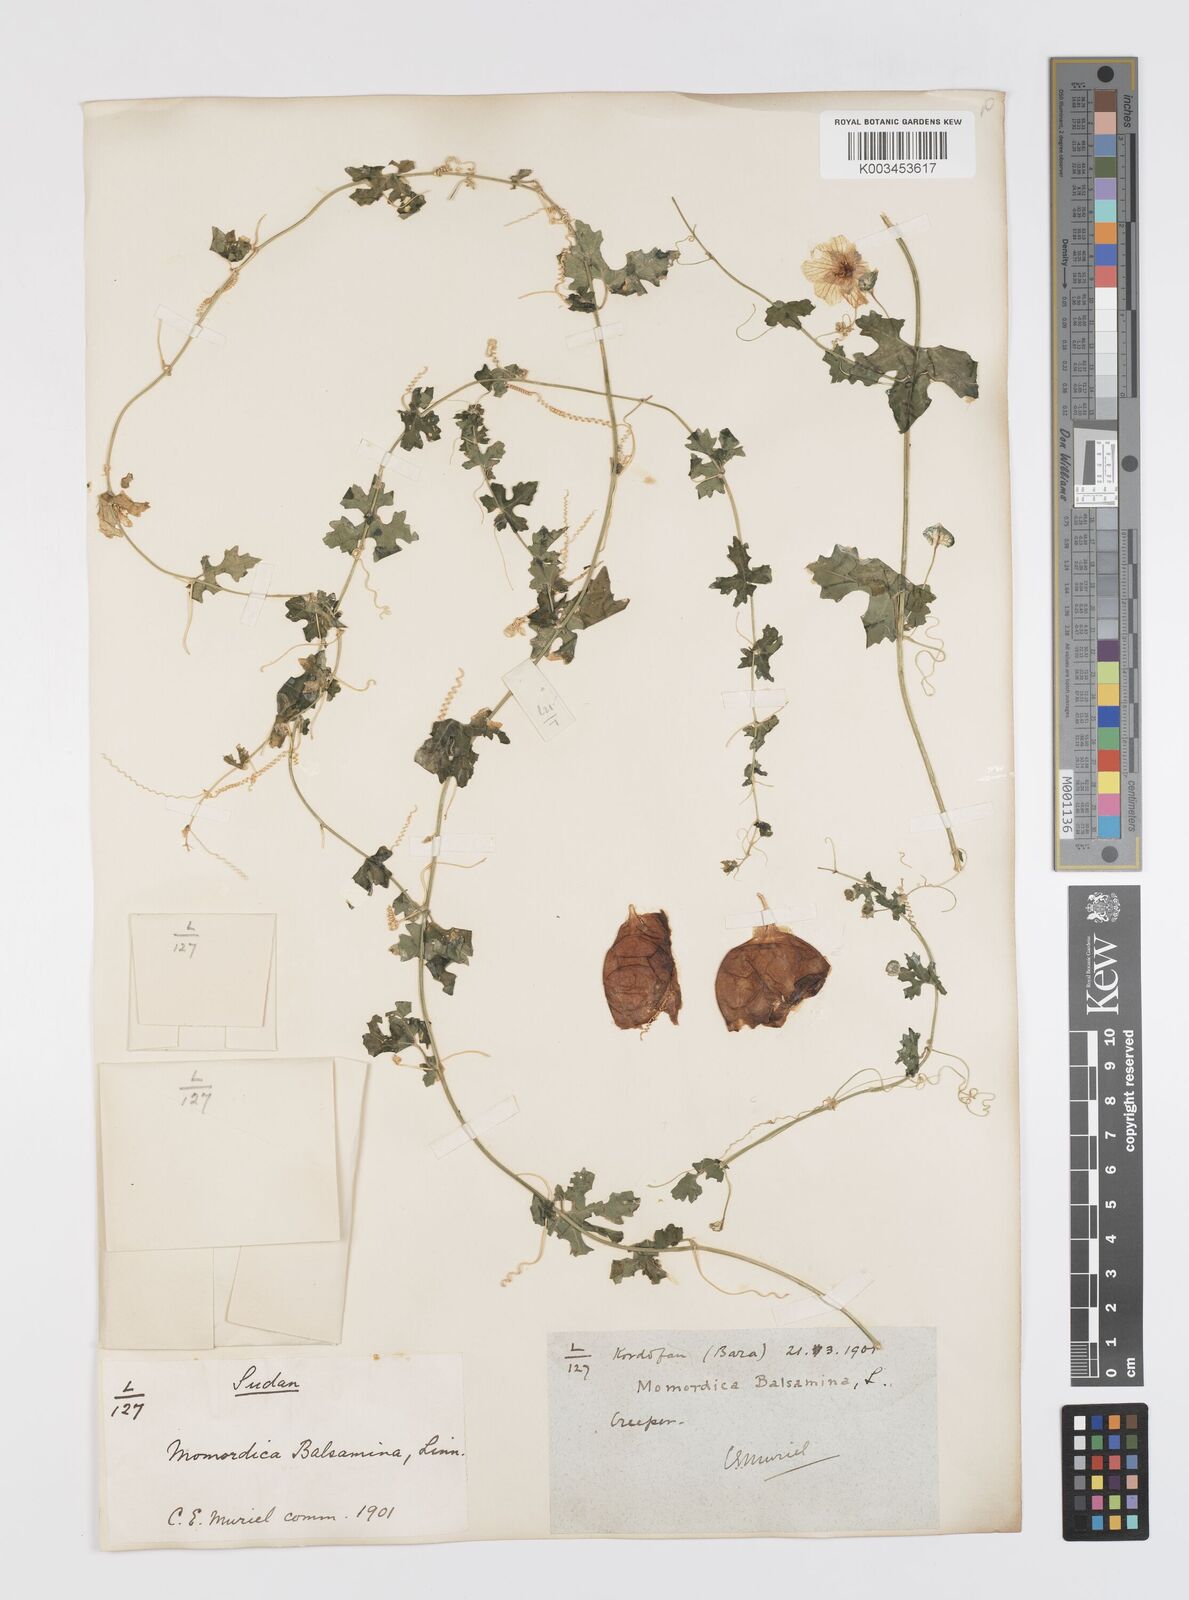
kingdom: Plantae
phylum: Tracheophyta
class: Magnoliopsida
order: Cucurbitales
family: Cucurbitaceae
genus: Momordica
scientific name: Momordica balsamina
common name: Southern balsampear
